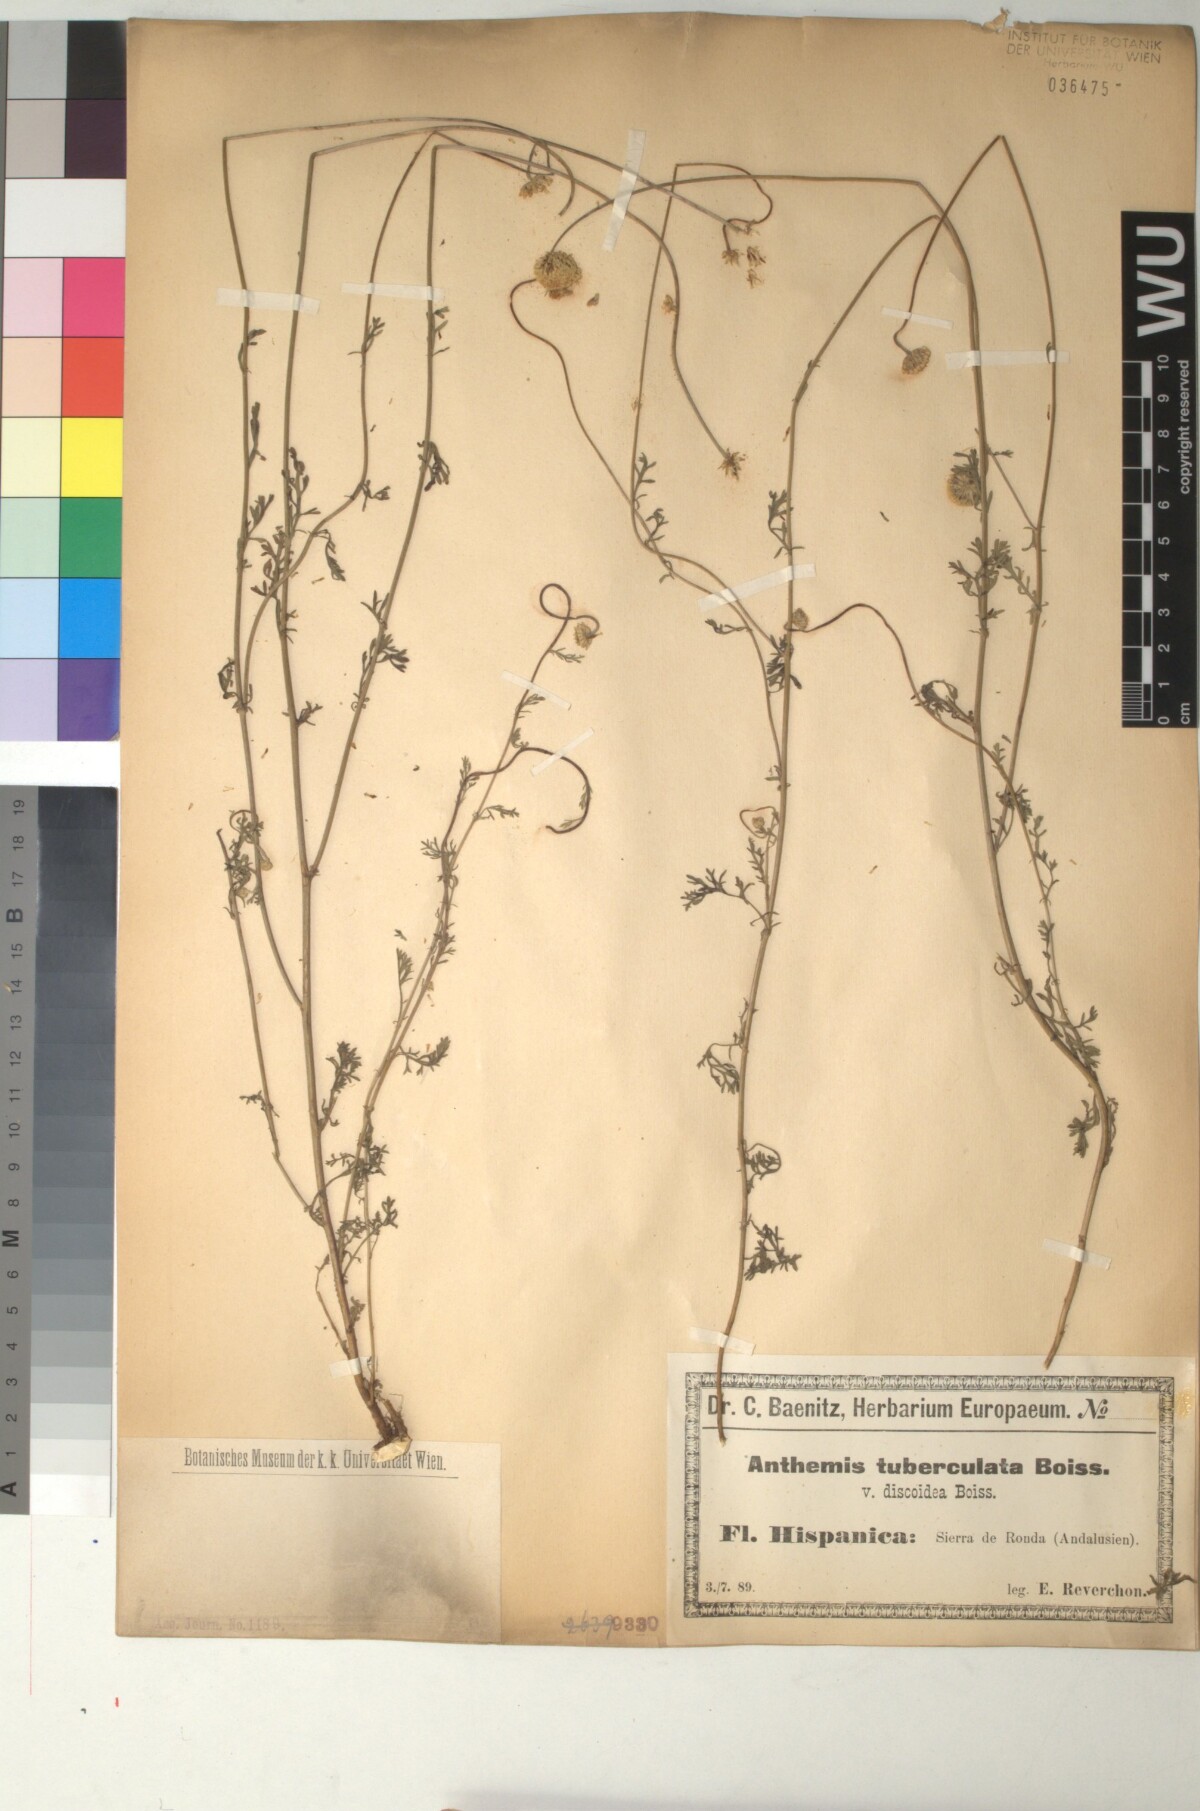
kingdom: Plantae
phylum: Tracheophyta
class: Magnoliopsida
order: Asterales
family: Asteraceae
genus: Anthemis
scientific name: Anthemis pedunculata
